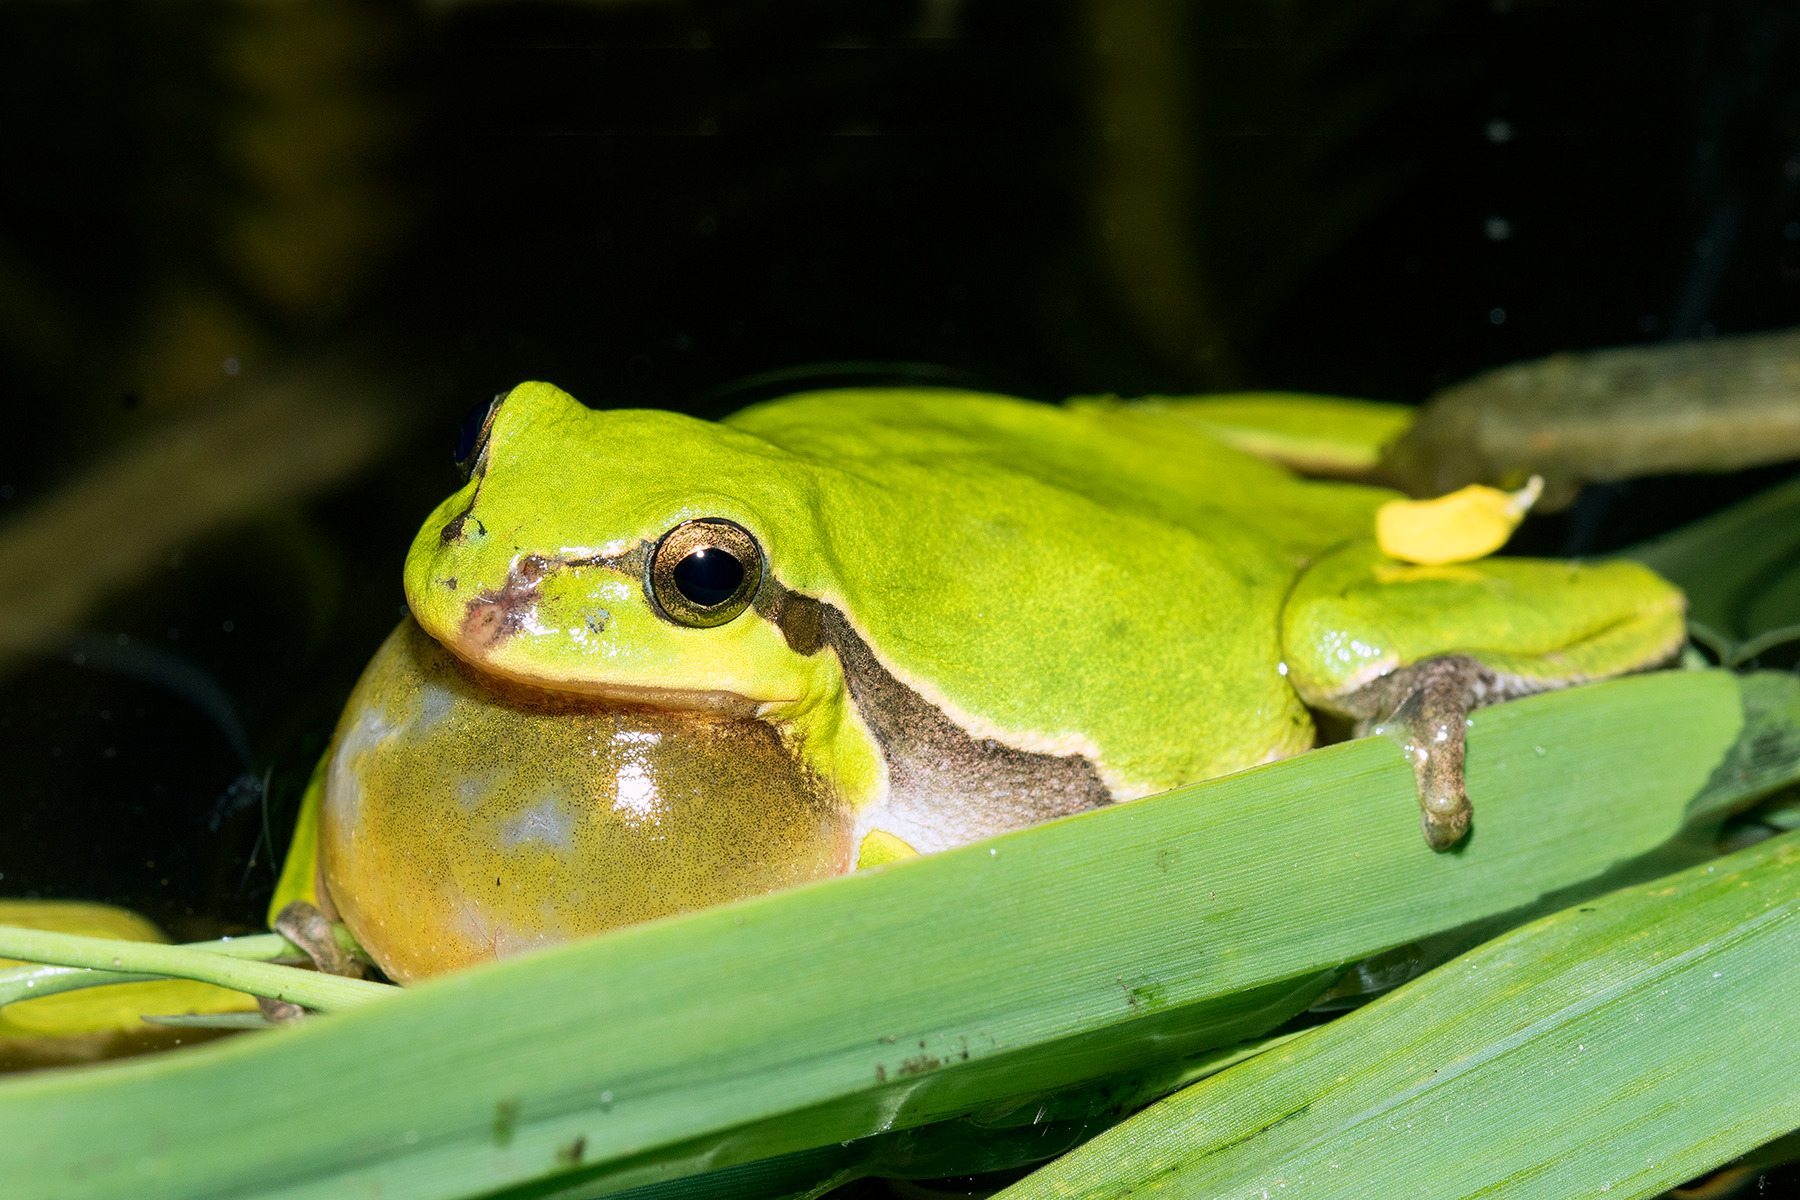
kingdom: Animalia
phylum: Chordata
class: Amphibia
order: Anura
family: Hylidae
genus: Hyla
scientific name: Hyla arborea
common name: Løvfrø
